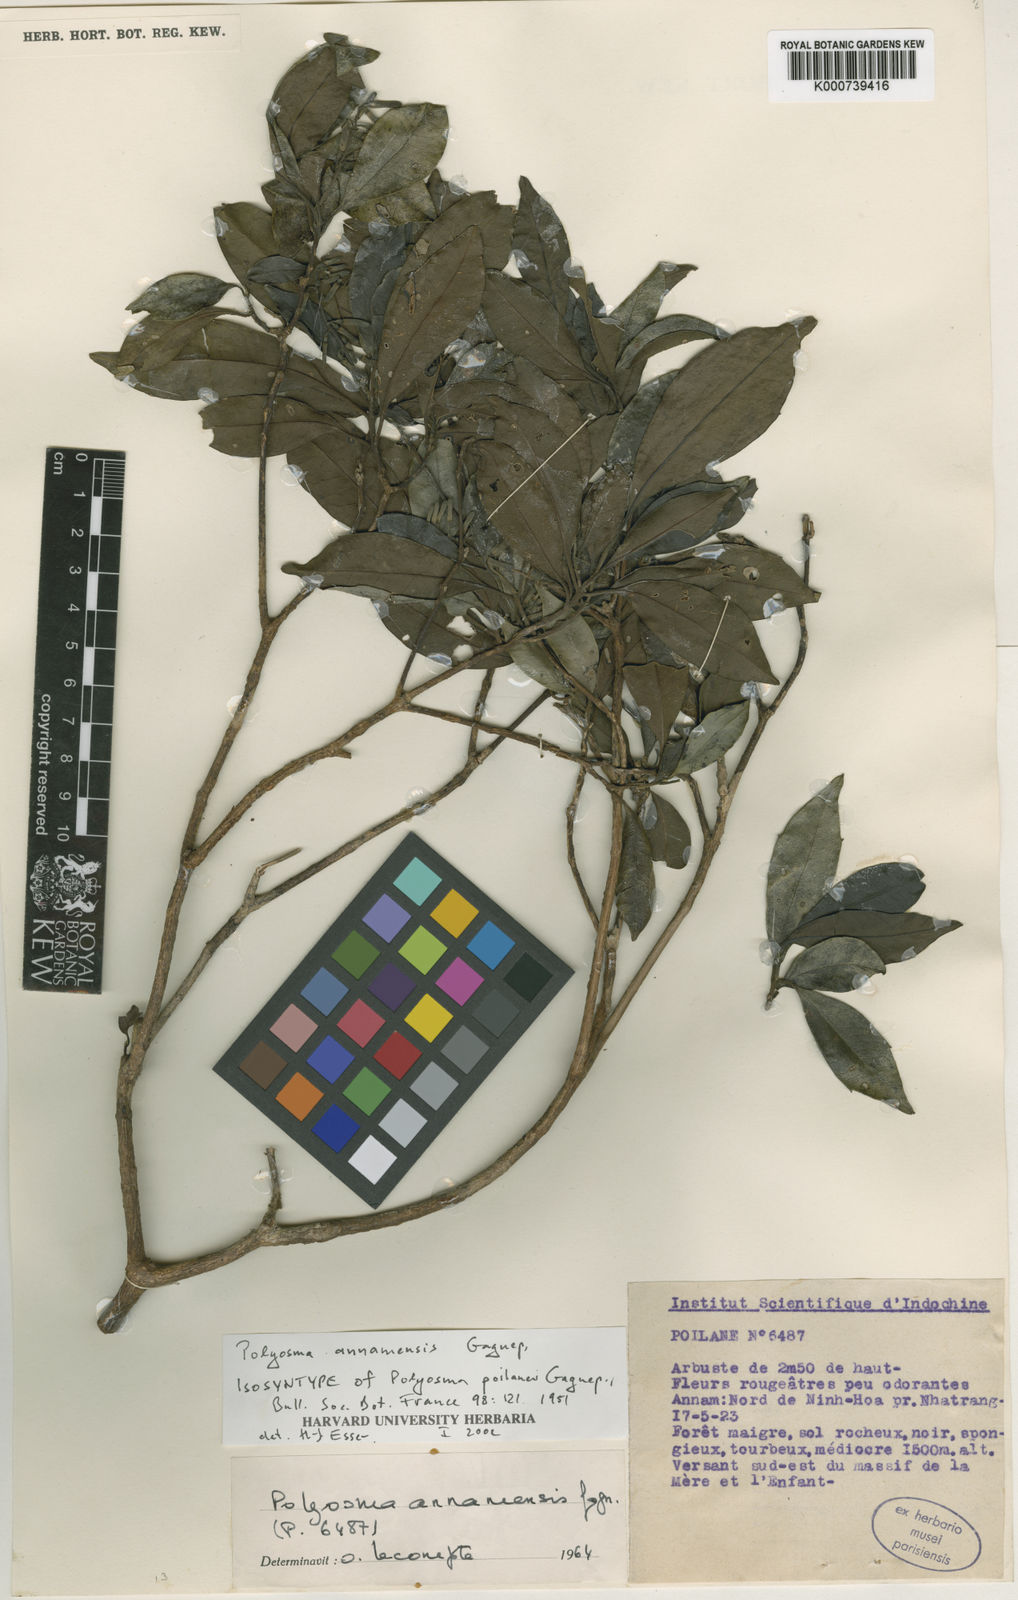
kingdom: Plantae
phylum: Tracheophyta
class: Magnoliopsida
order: Escalloniales
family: Escalloniaceae
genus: Polyosma
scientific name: Polyosma annamensis
